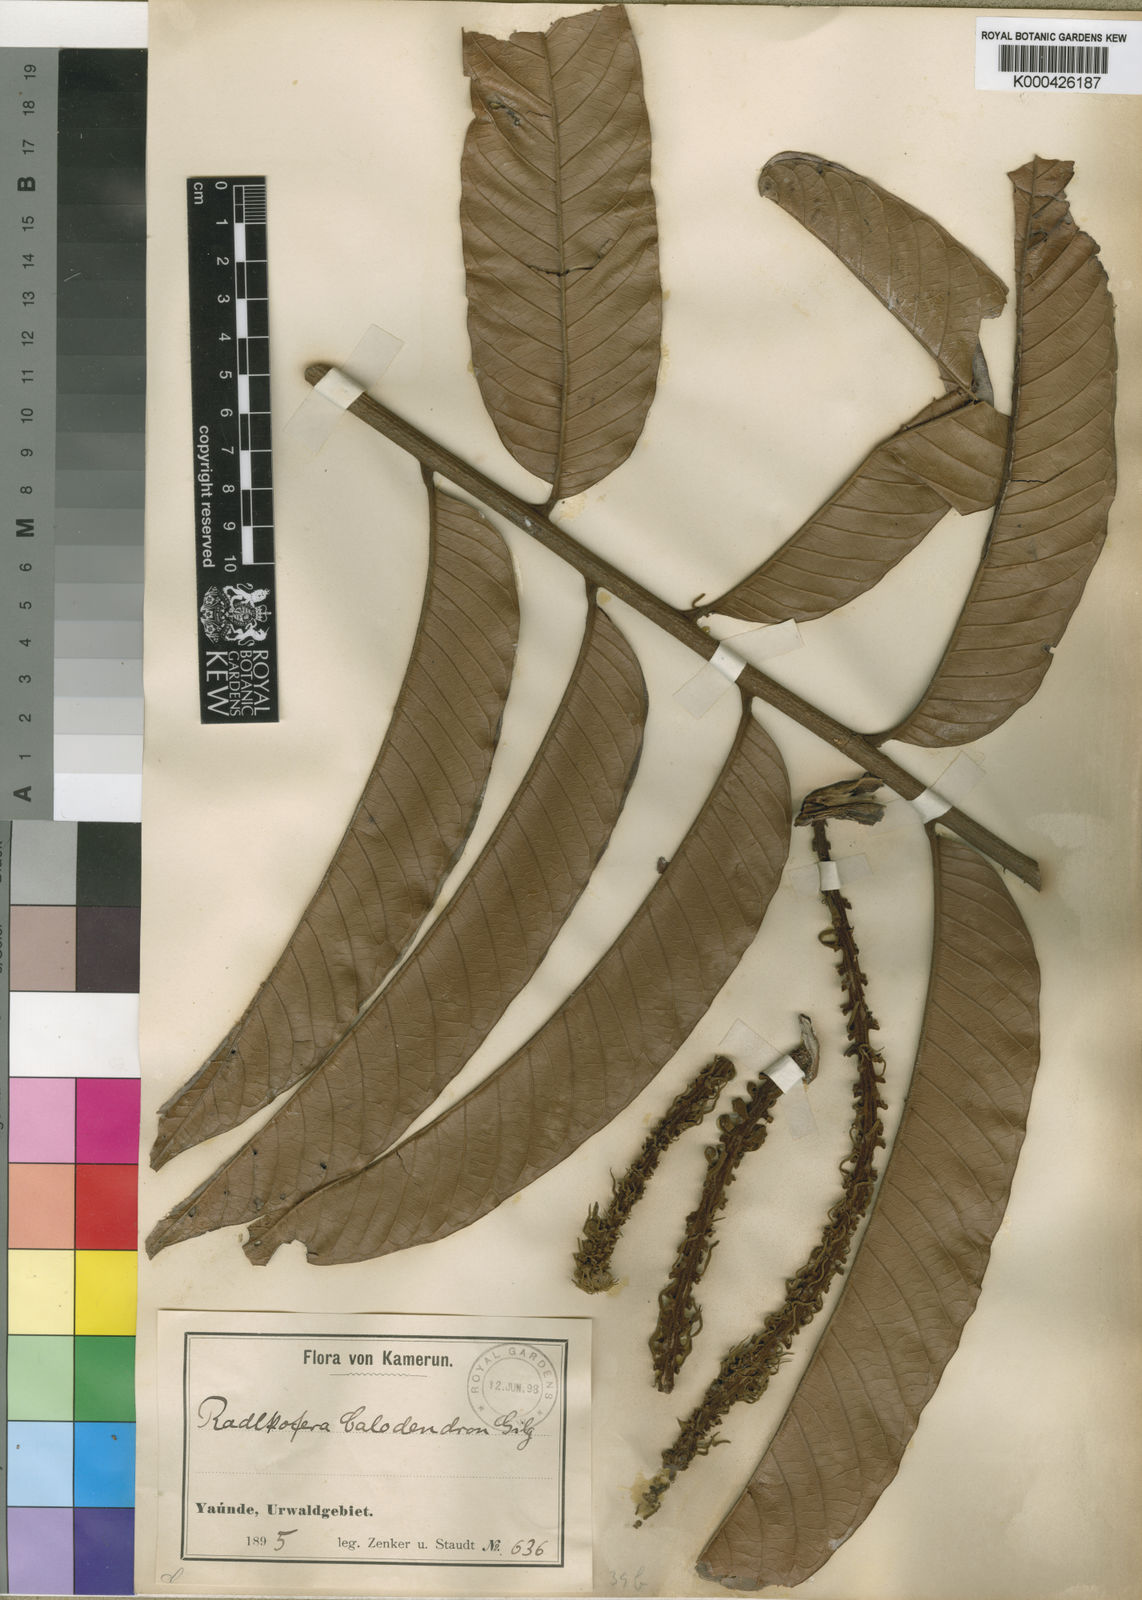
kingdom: Plantae
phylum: Tracheophyta
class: Magnoliopsida
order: Sapindales
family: Sapindaceae
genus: Radlkofera
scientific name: Radlkofera calodendron
